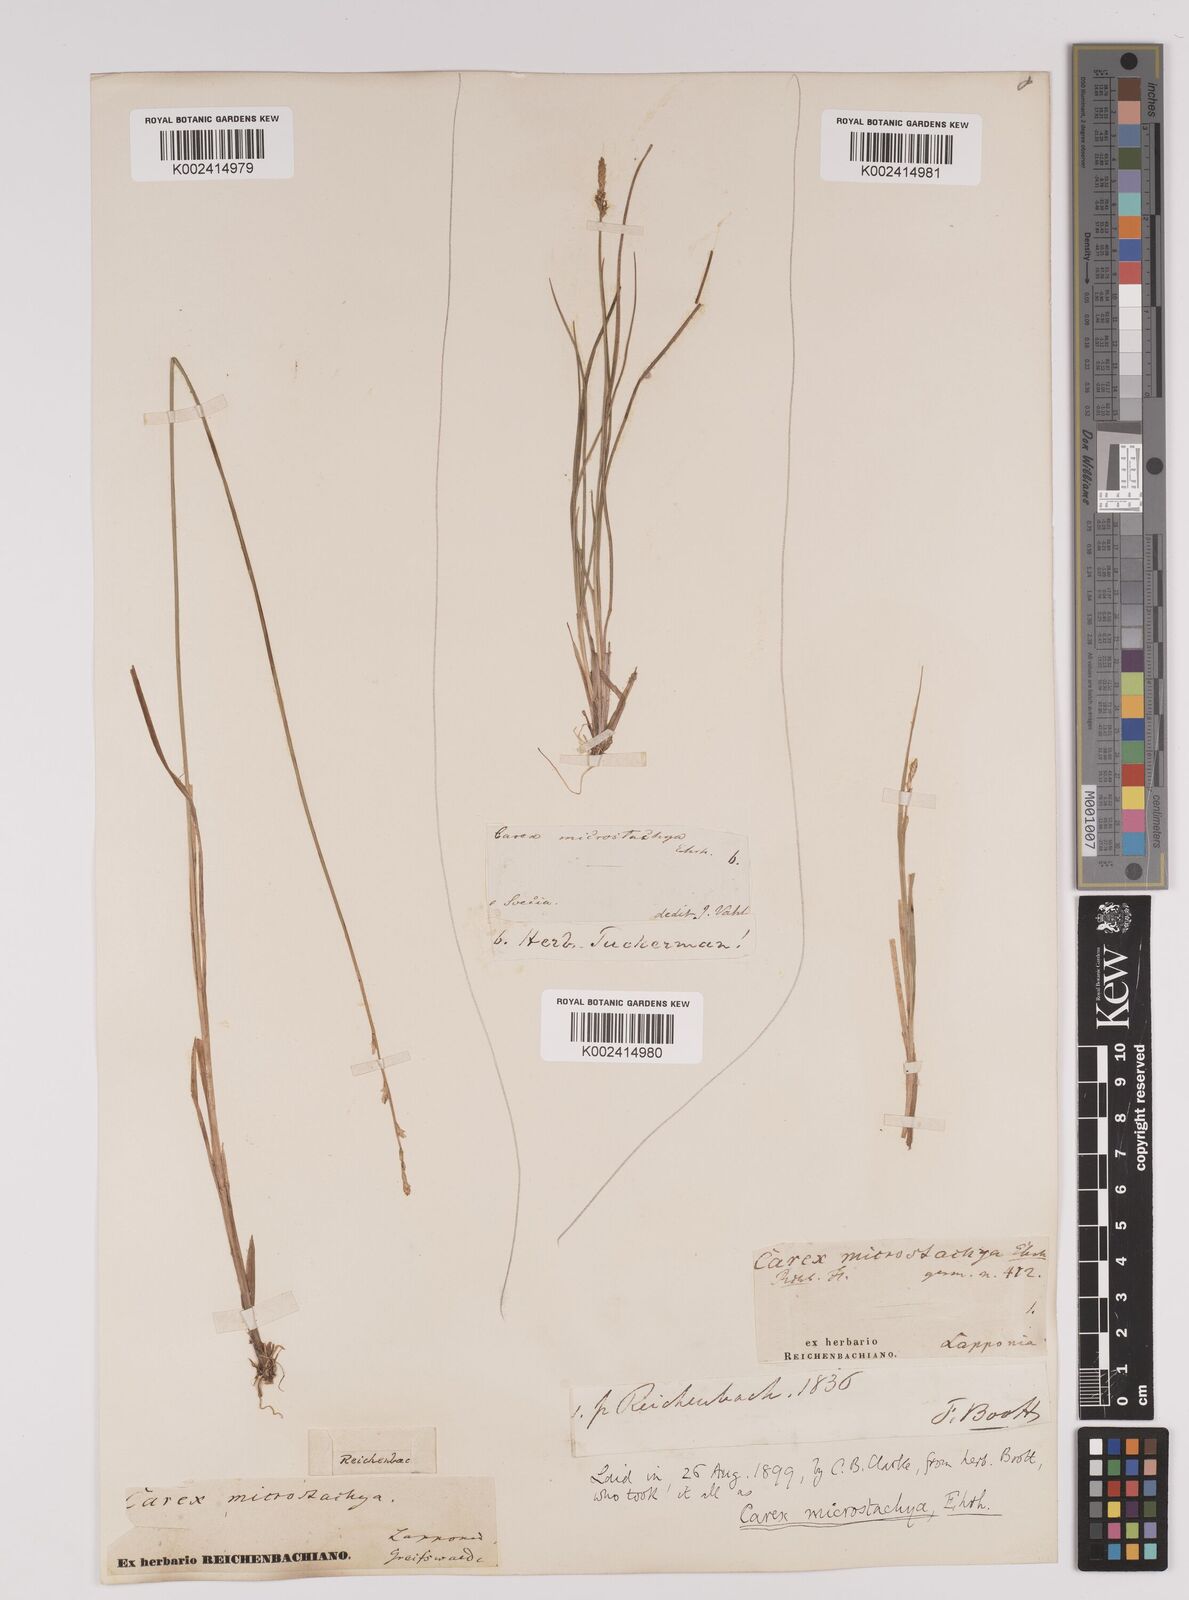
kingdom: Plantae
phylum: Tracheophyta
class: Liliopsida
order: Poales
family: Cyperaceae
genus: Carex
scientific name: Carex dioica
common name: Dioecious sedge
